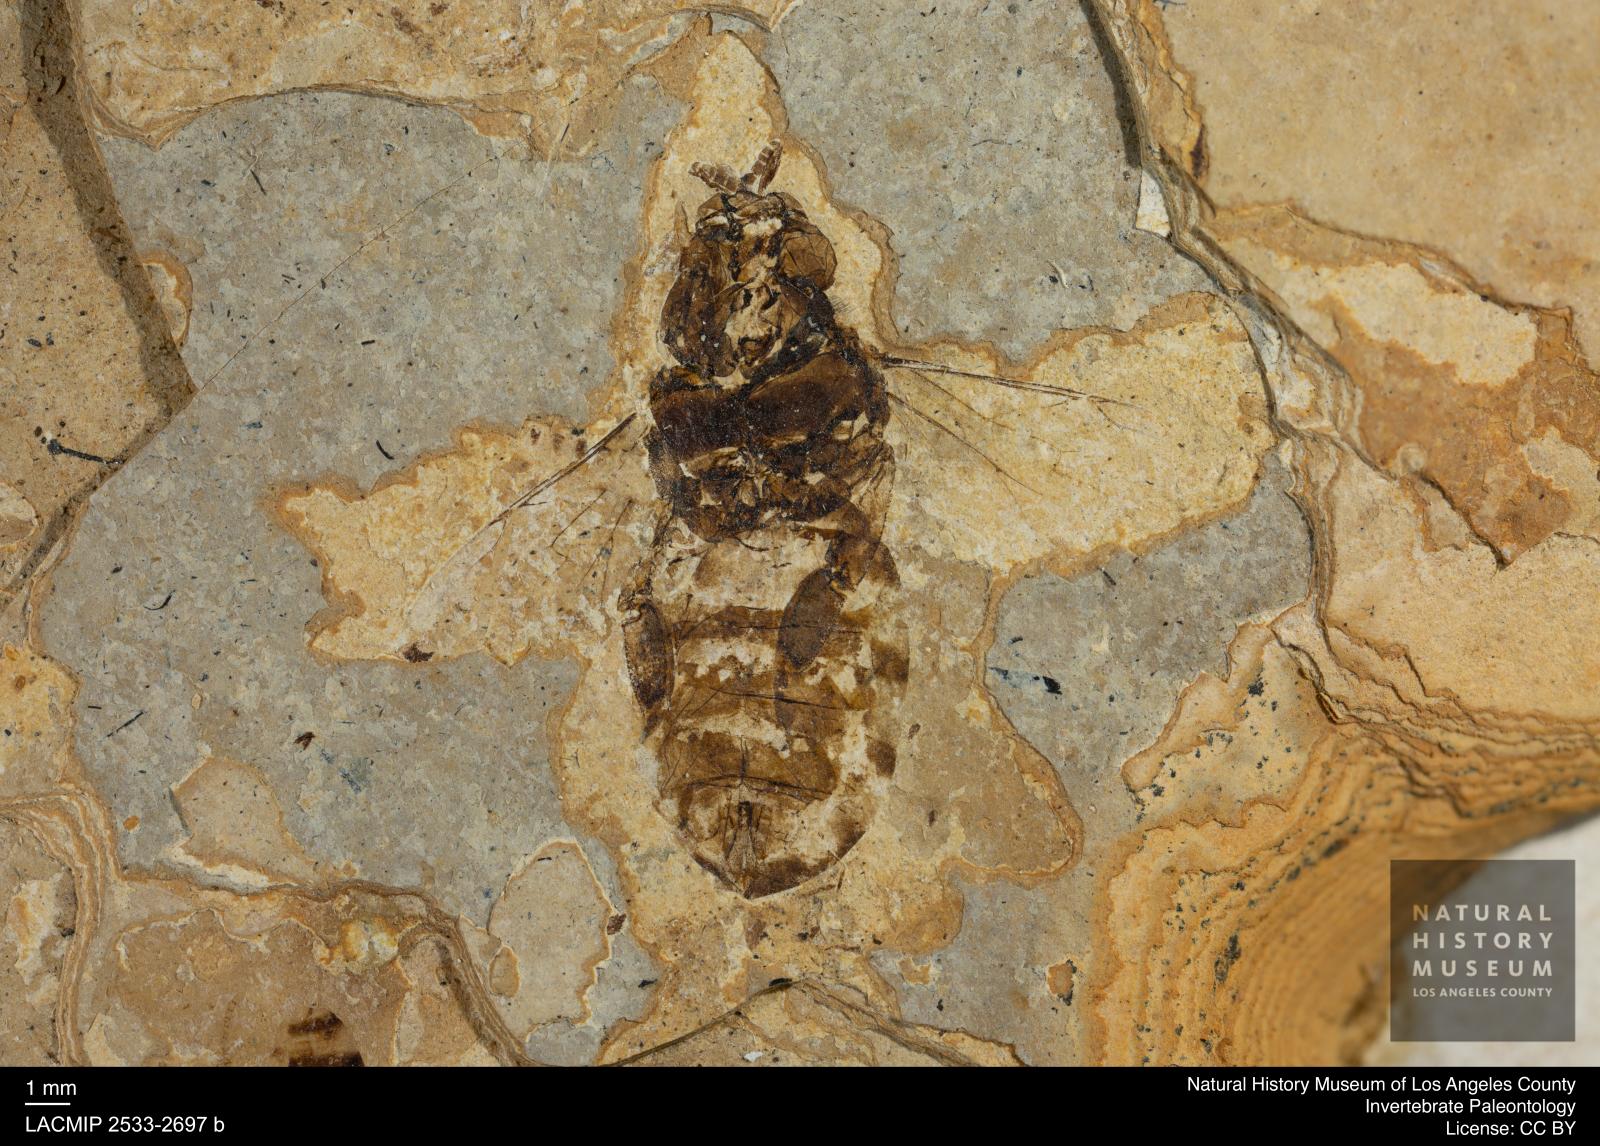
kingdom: Animalia
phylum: Arthropoda
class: Insecta
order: Hymenoptera
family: Apidae
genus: Apis
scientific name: Apis henshawi
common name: Henshaw's honey bee
